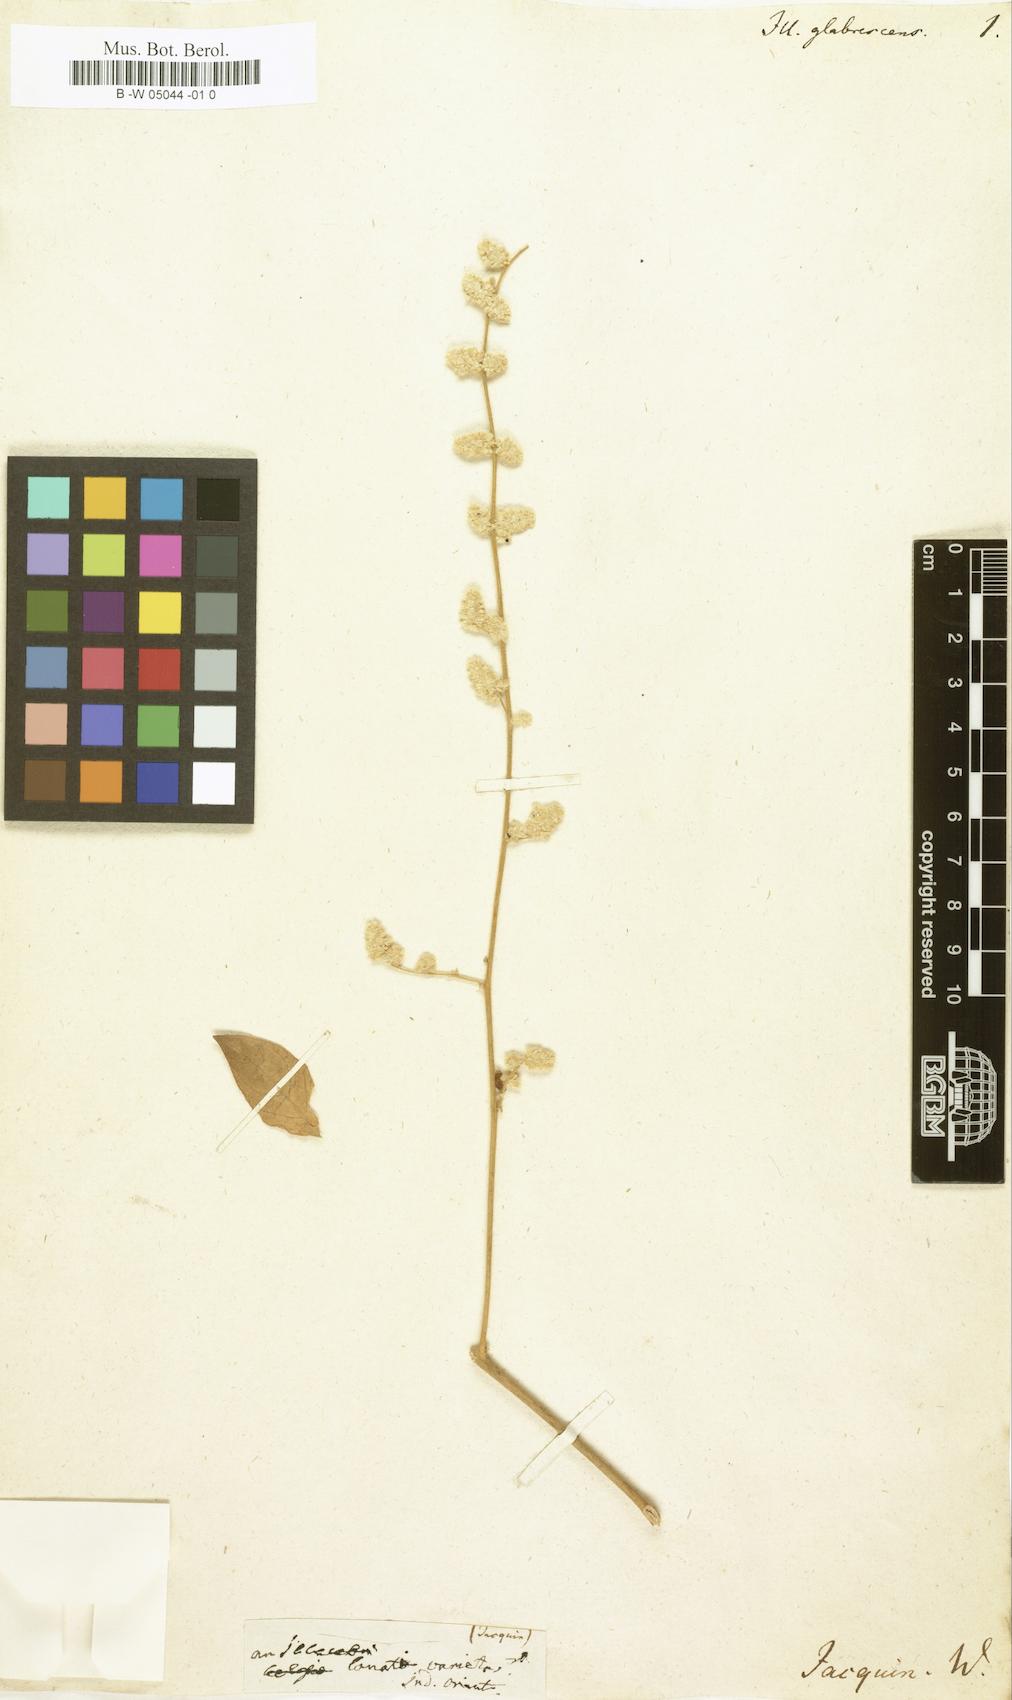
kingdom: Plantae
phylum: Tracheophyta
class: Magnoliopsida
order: Caryophyllales
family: Caryophyllaceae
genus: Illecebrum
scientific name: Illecebrum
